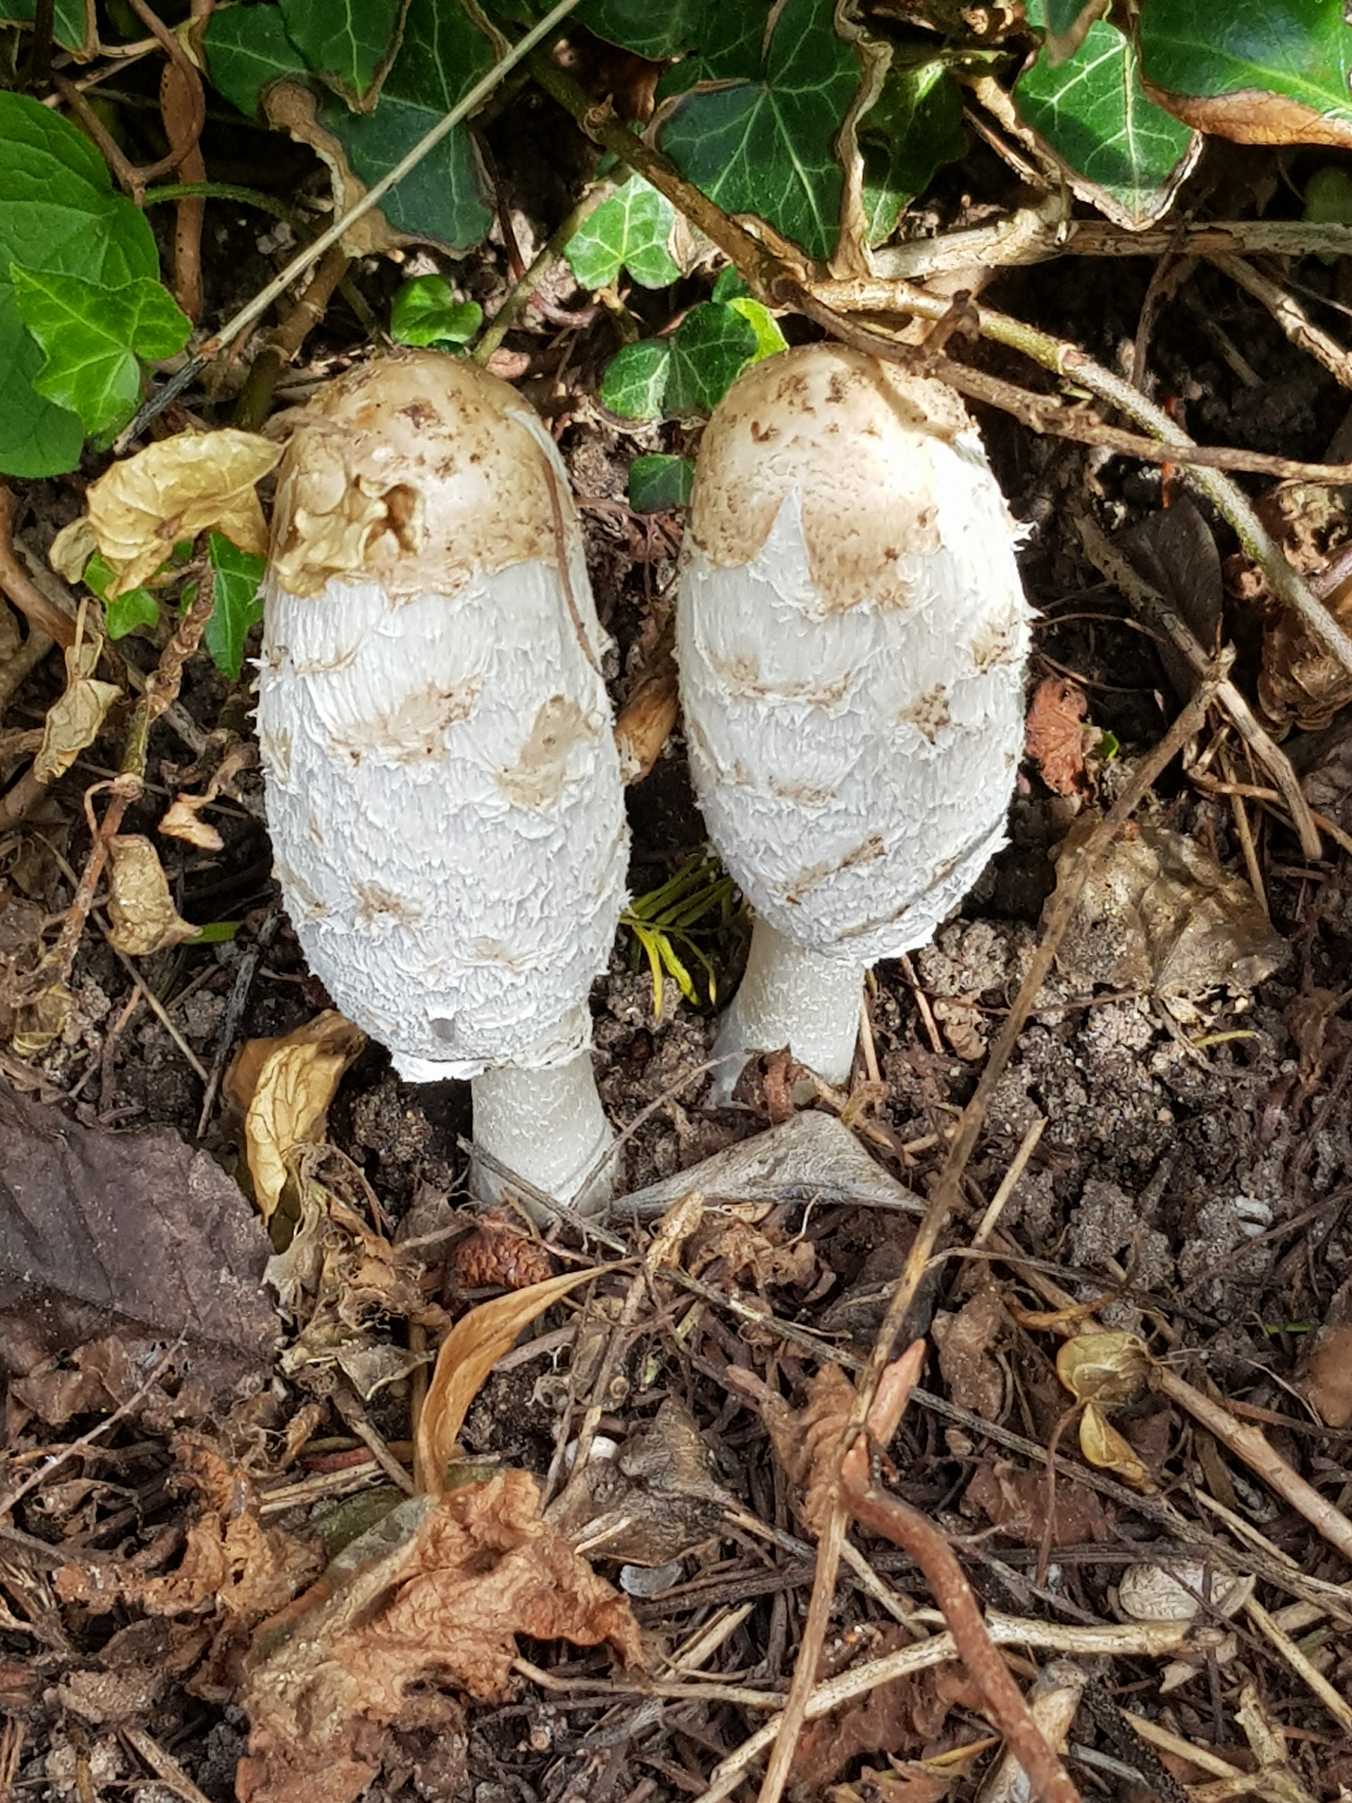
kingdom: Fungi
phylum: Basidiomycota
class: Agaricomycetes
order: Agaricales
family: Agaricaceae
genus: Coprinus
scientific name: Coprinus comatus
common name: Stor parykhat
